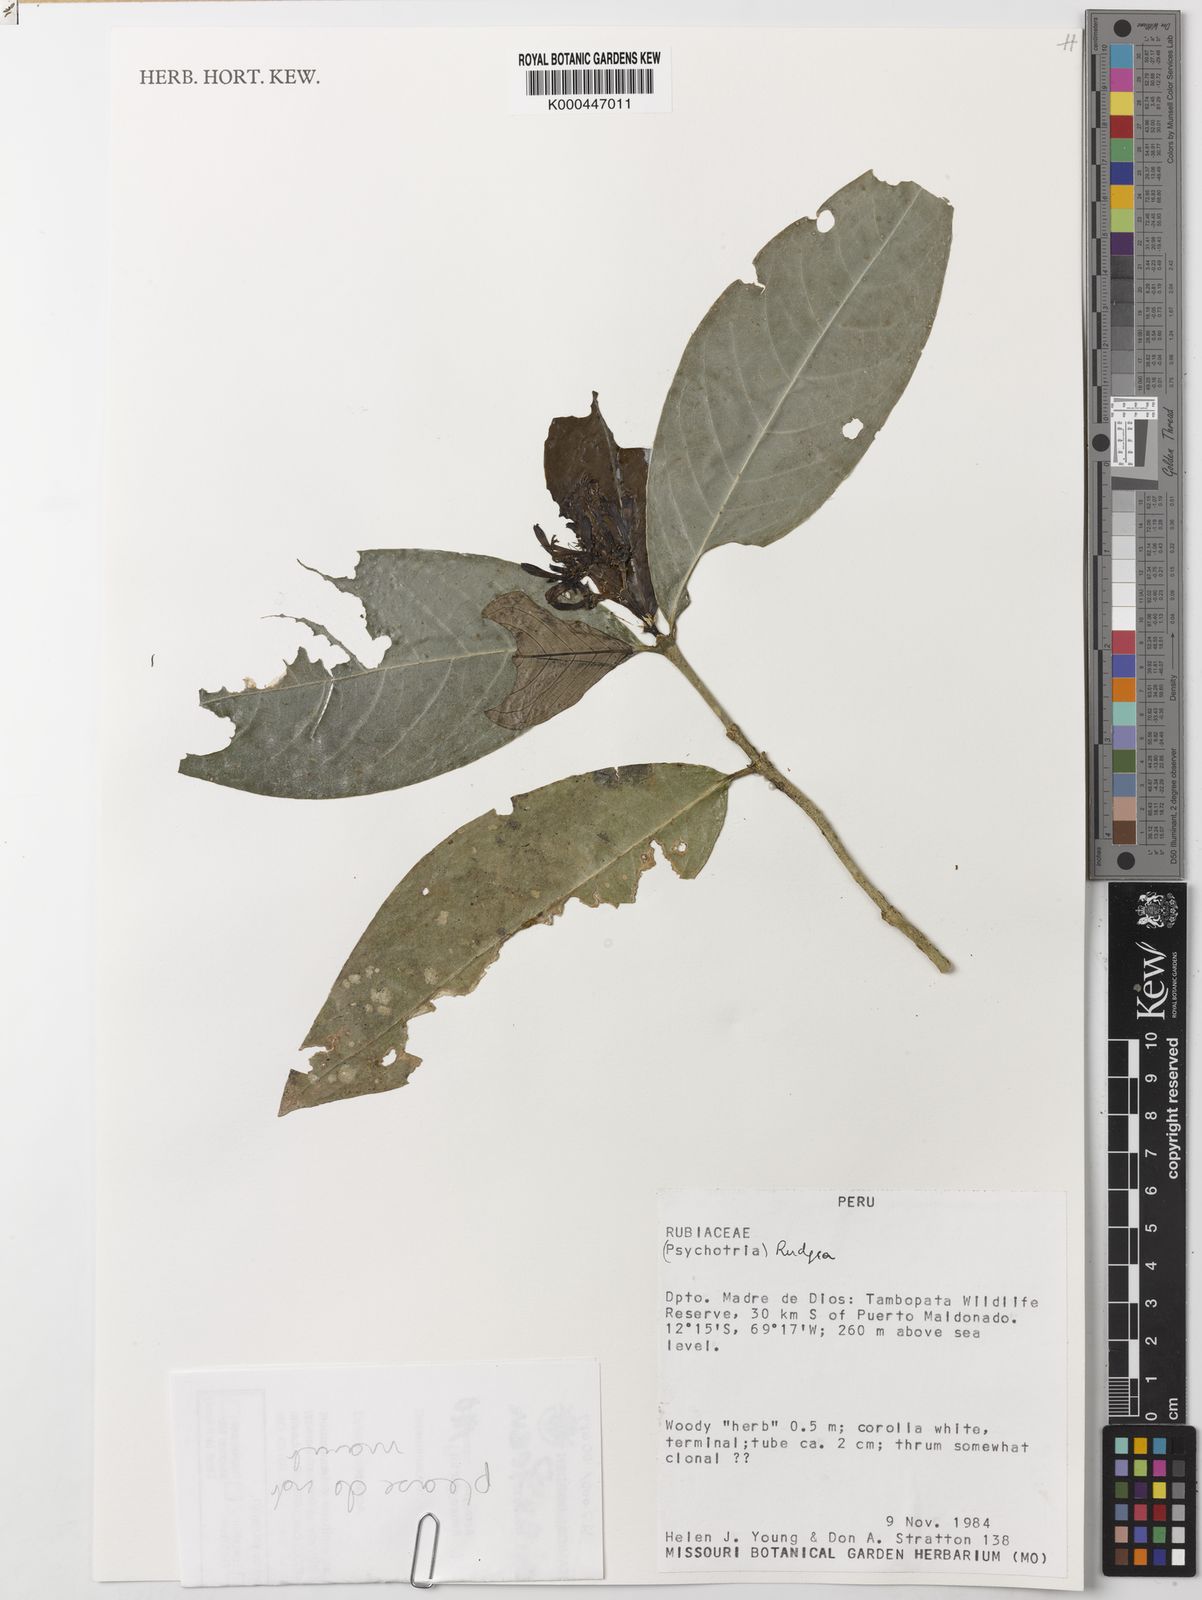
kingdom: Plantae
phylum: Tracheophyta
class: Magnoliopsida
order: Gentianales
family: Rubiaceae
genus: Rudgea
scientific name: Rudgea
